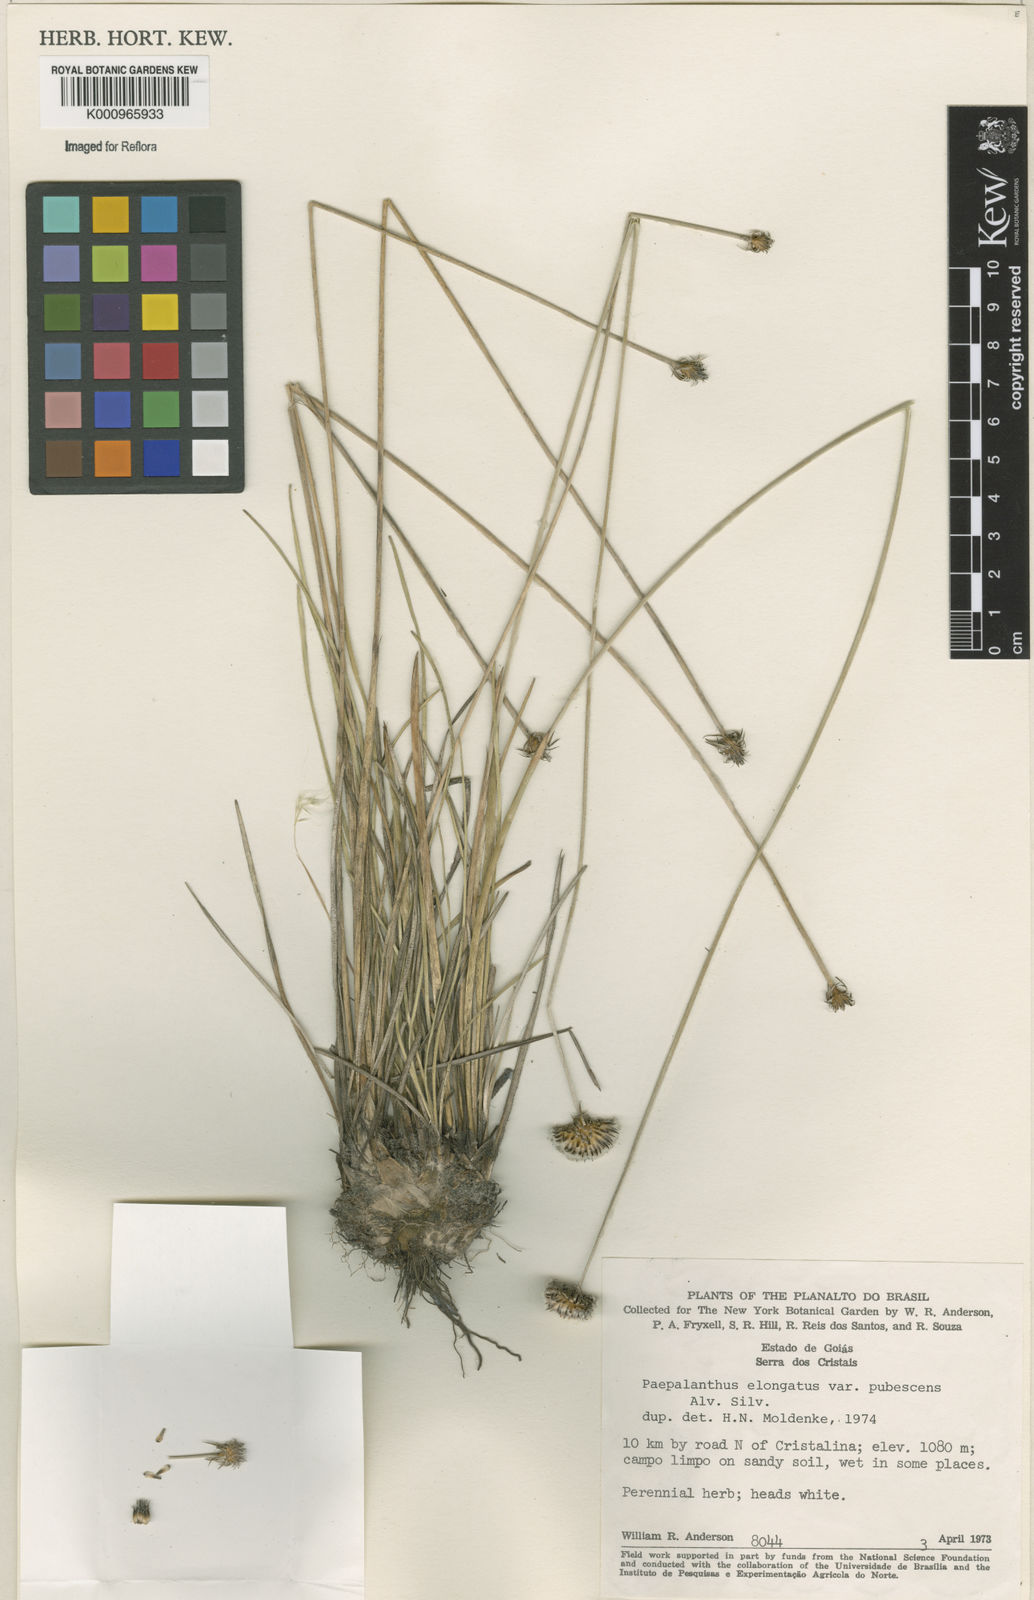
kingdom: Plantae
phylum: Tracheophyta
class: Liliopsida
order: Poales
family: Eriocaulaceae
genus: Paepalanthus
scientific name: Paepalanthus
